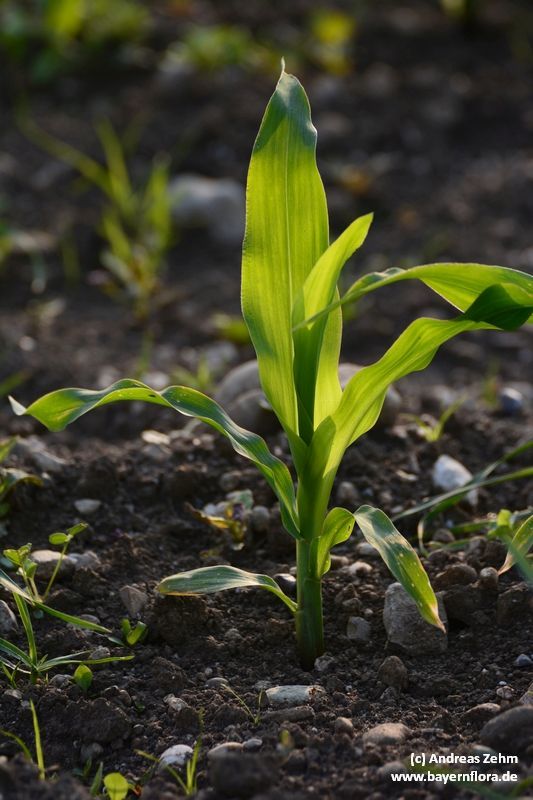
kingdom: Plantae
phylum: Tracheophyta
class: Liliopsida
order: Poales
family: Poaceae
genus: Zea
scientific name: Zea mays
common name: Maize
